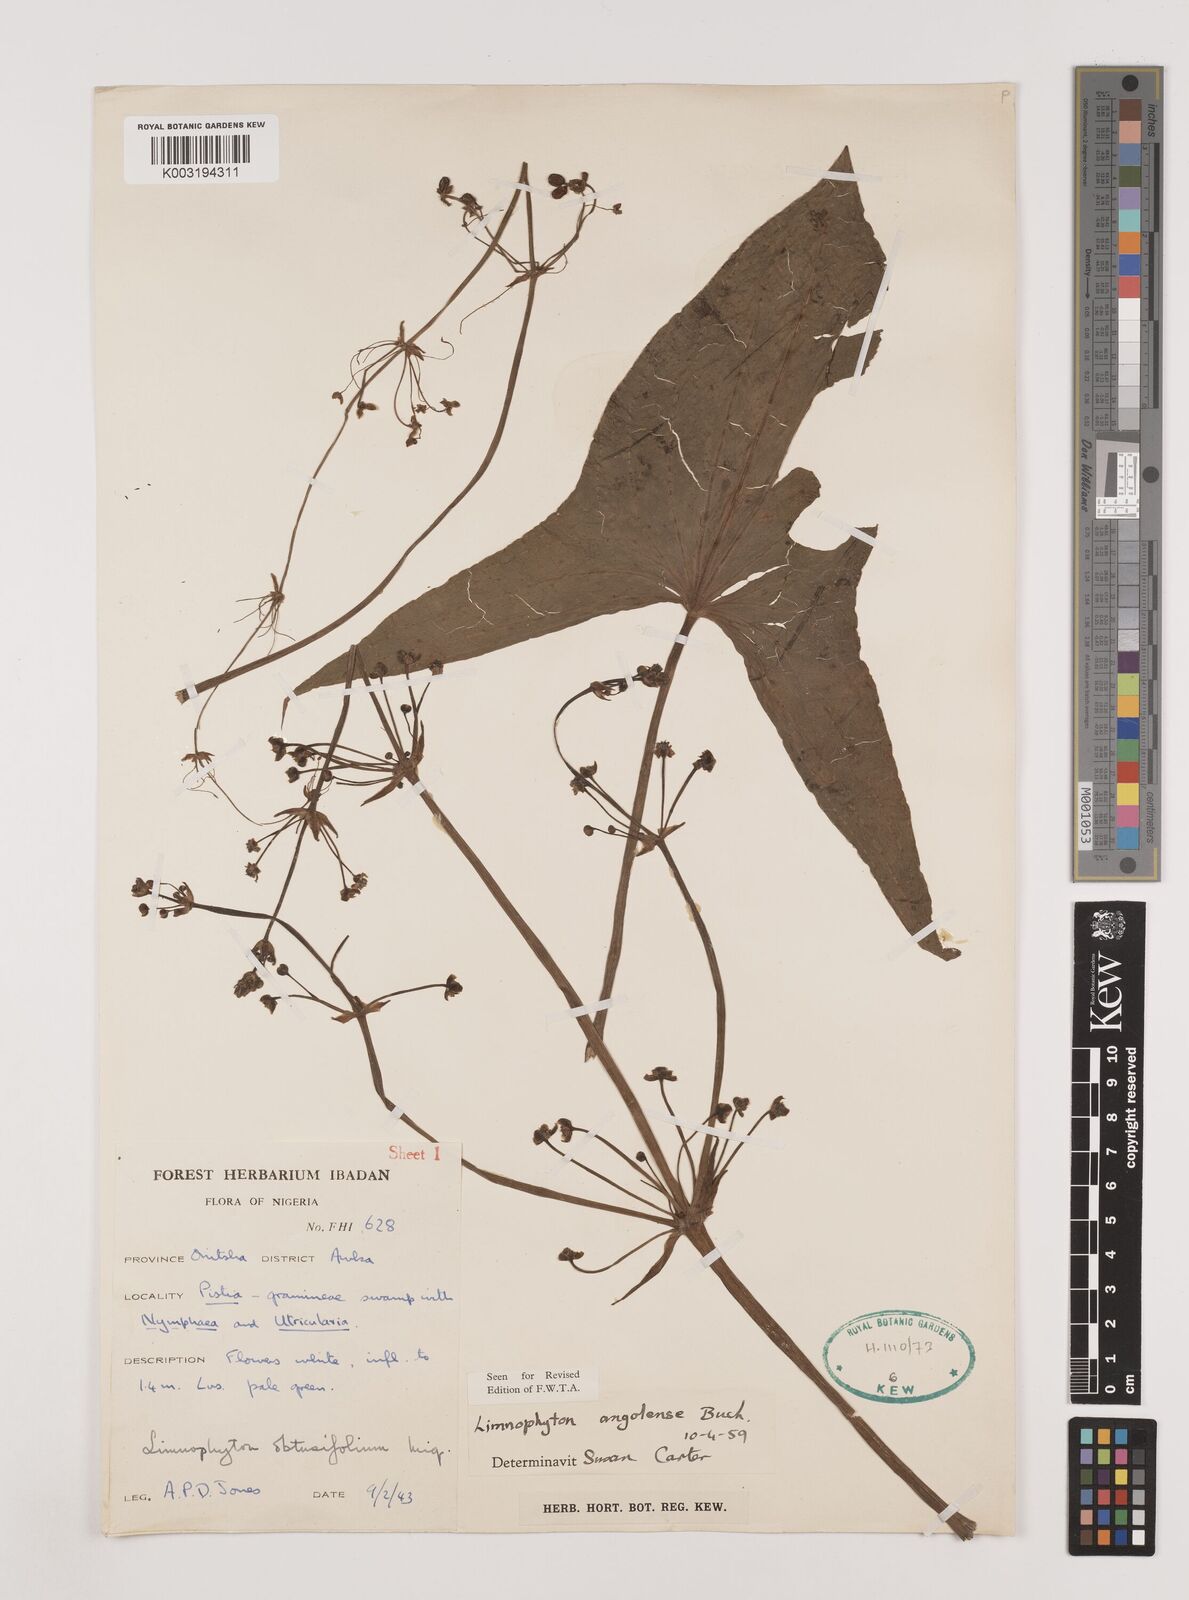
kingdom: Plantae
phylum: Tracheophyta
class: Liliopsida
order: Alismatales
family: Alismataceae
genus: Limnophyton
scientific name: Limnophyton angolense
